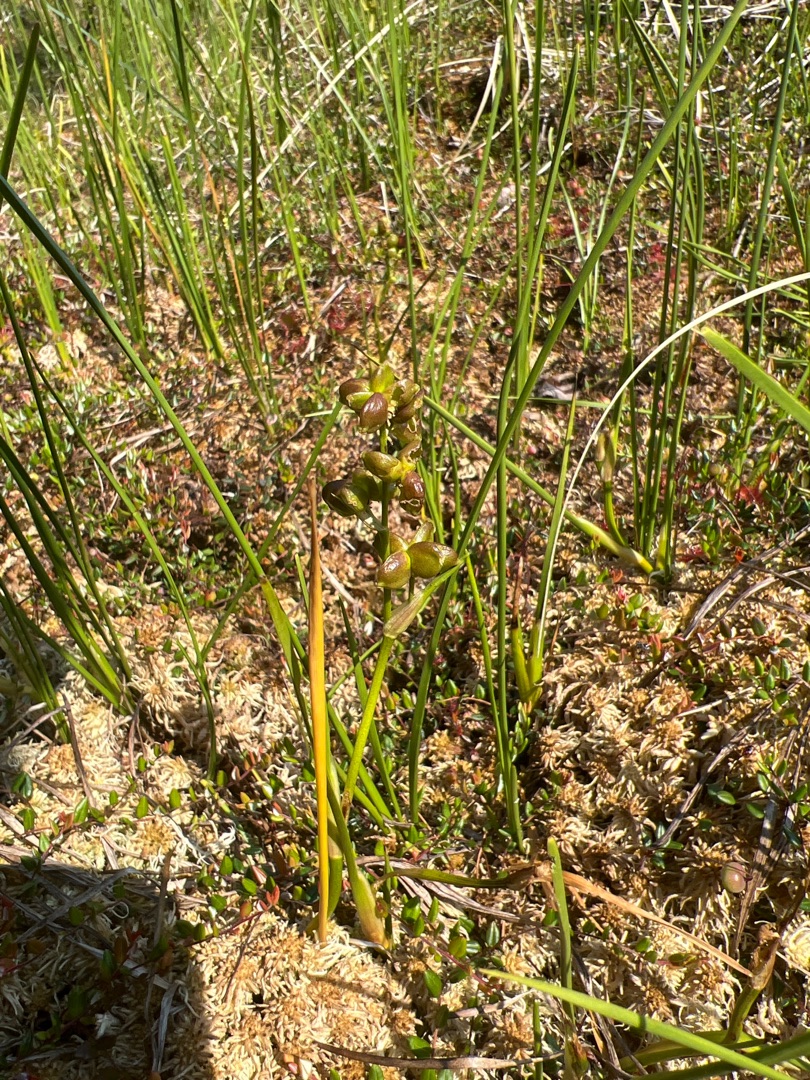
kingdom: Plantae
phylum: Tracheophyta
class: Liliopsida
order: Alismatales
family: Scheuchzeriaceae
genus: Scheuchzeria
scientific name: Scheuchzeria palustris
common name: Blomstersiv
